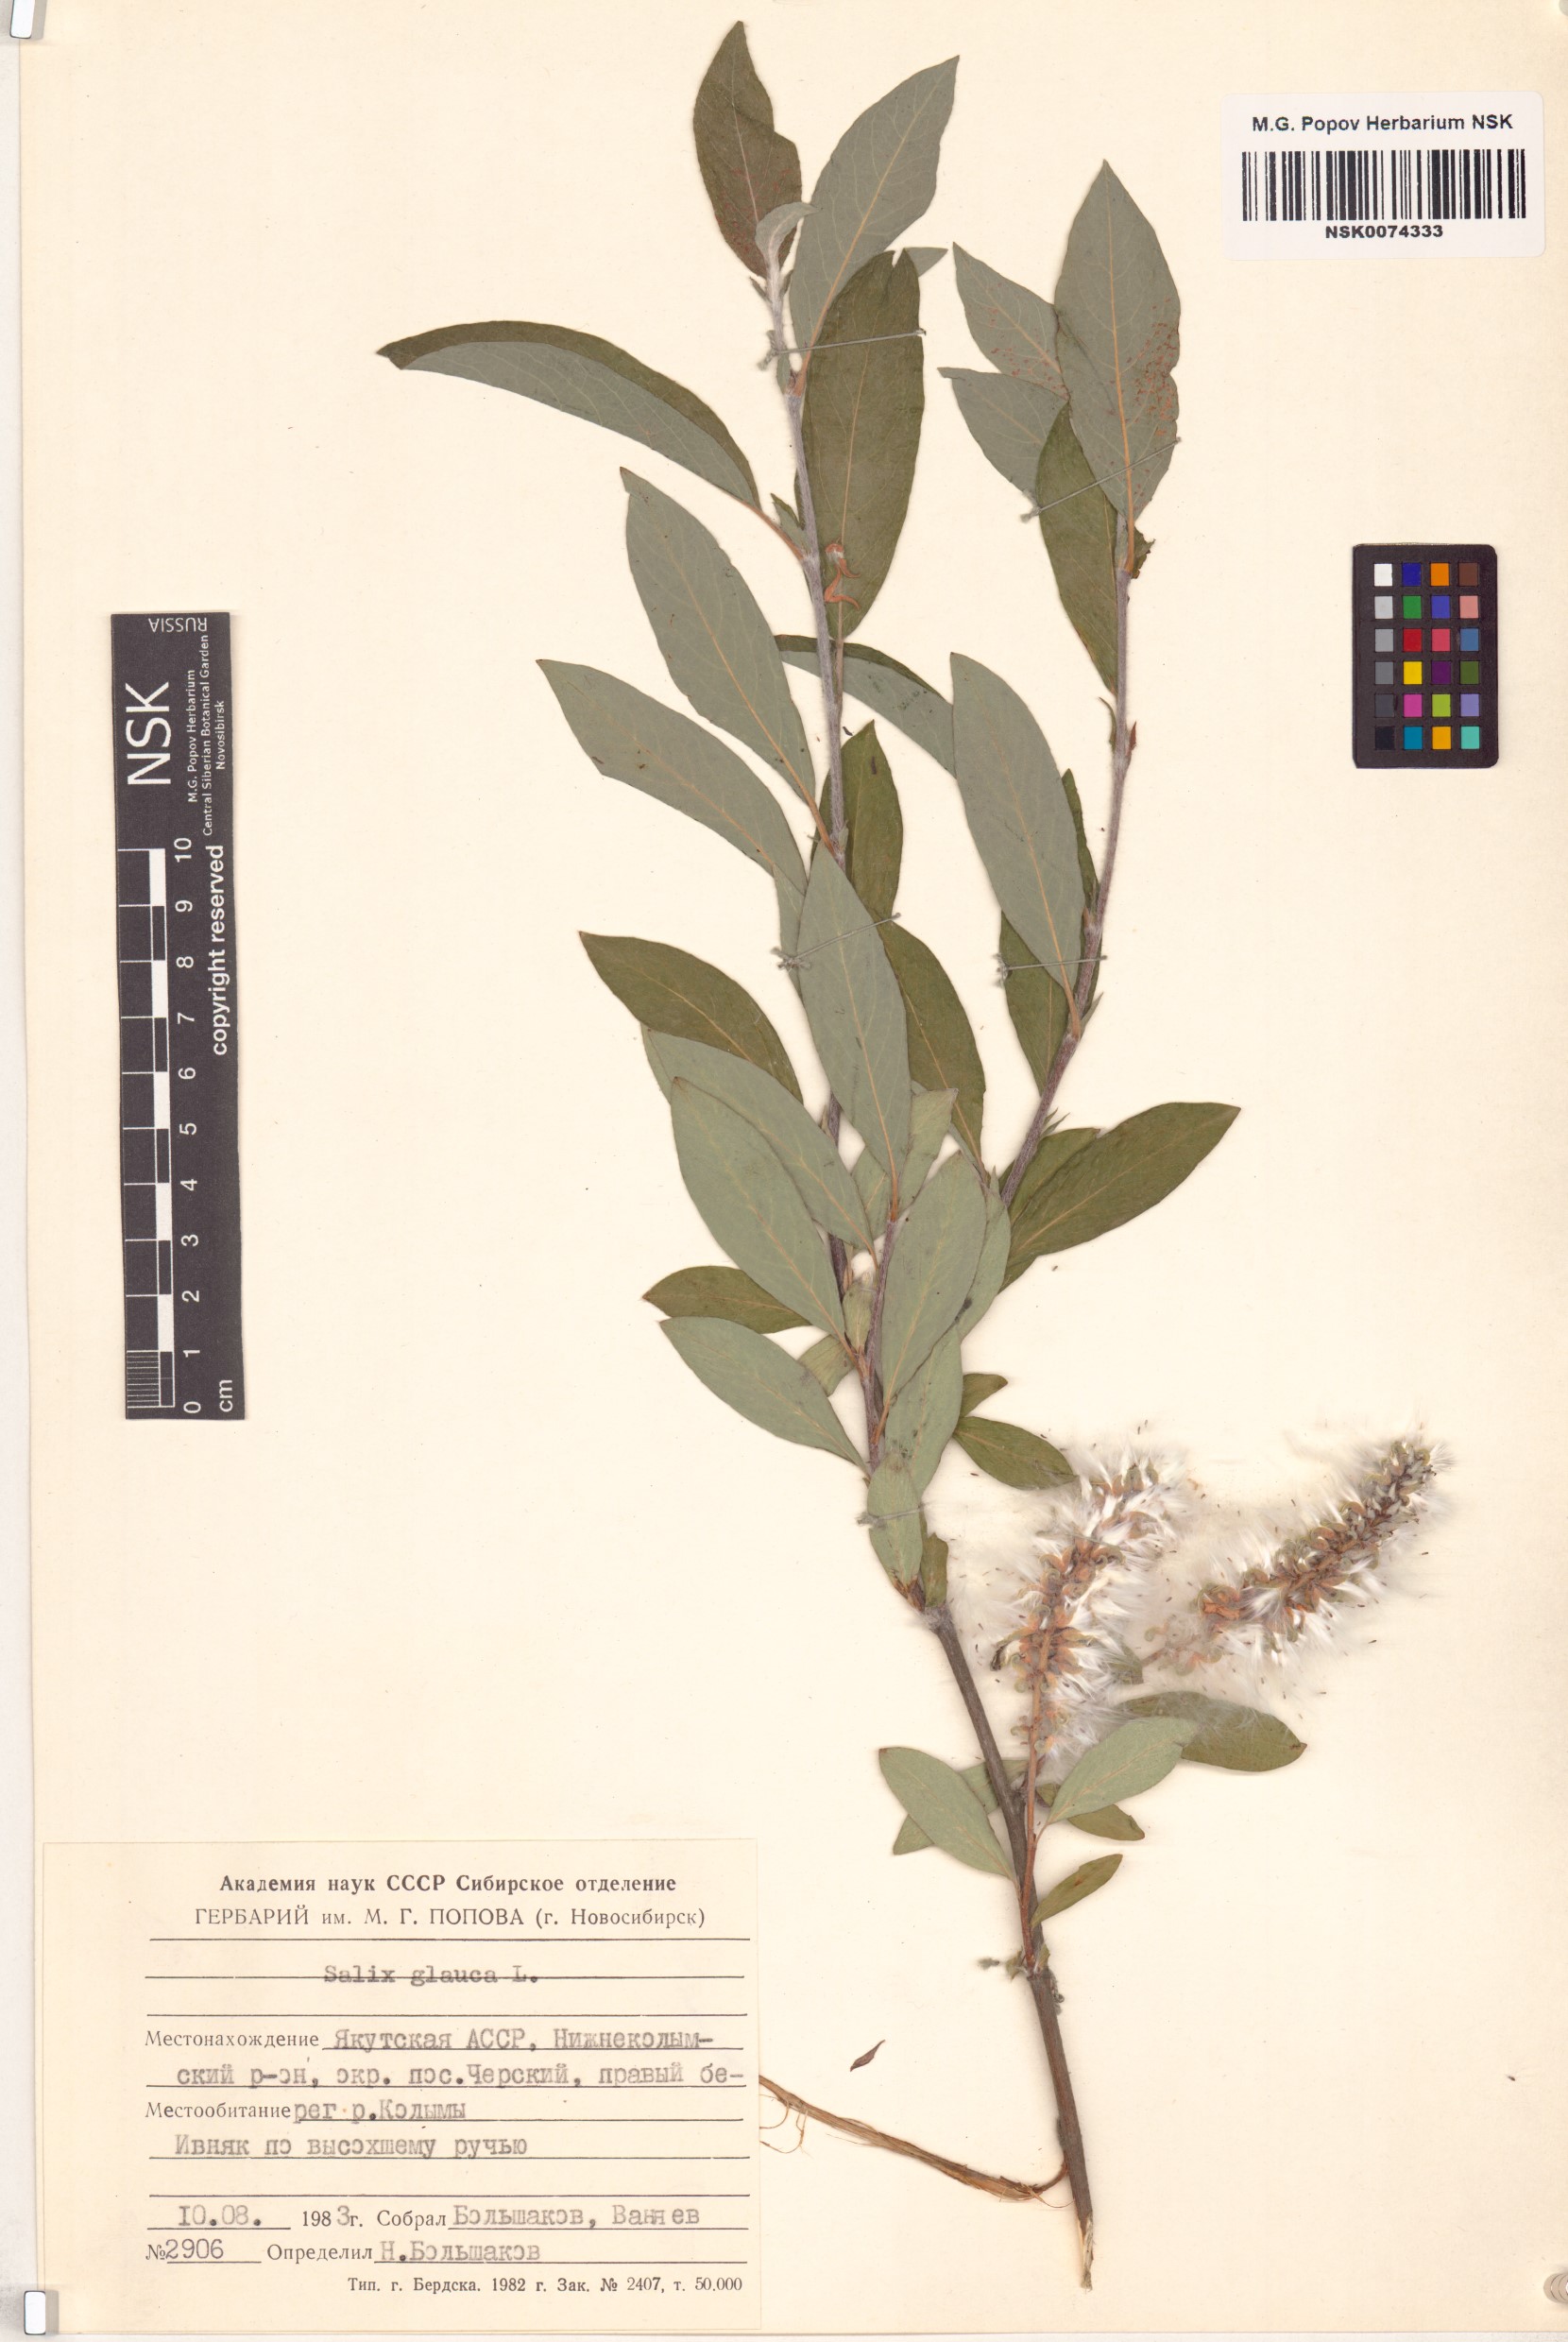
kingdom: Plantae
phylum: Tracheophyta
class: Magnoliopsida
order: Malpighiales
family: Salicaceae
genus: Salix
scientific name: Salix glauca
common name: Glaucous willow
